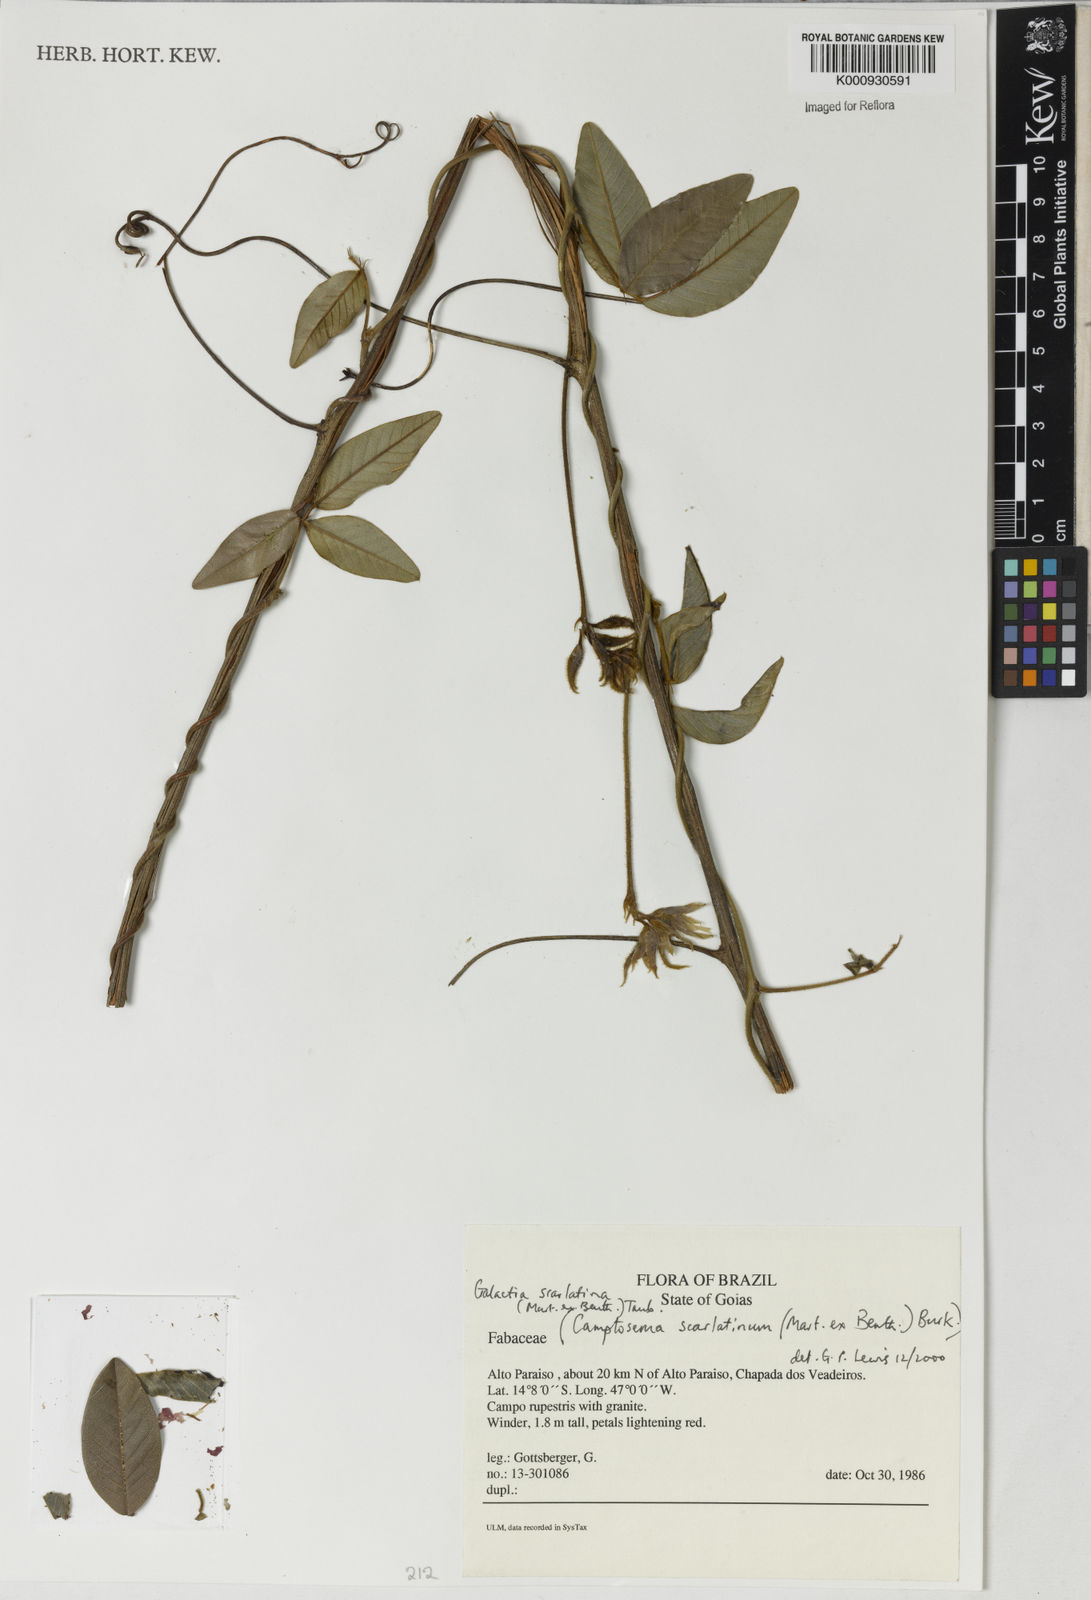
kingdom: Plantae
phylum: Tracheophyta
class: Magnoliopsida
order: Fabales
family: Fabaceae
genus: Betencourtia
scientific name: Betencourtia scarlatina
